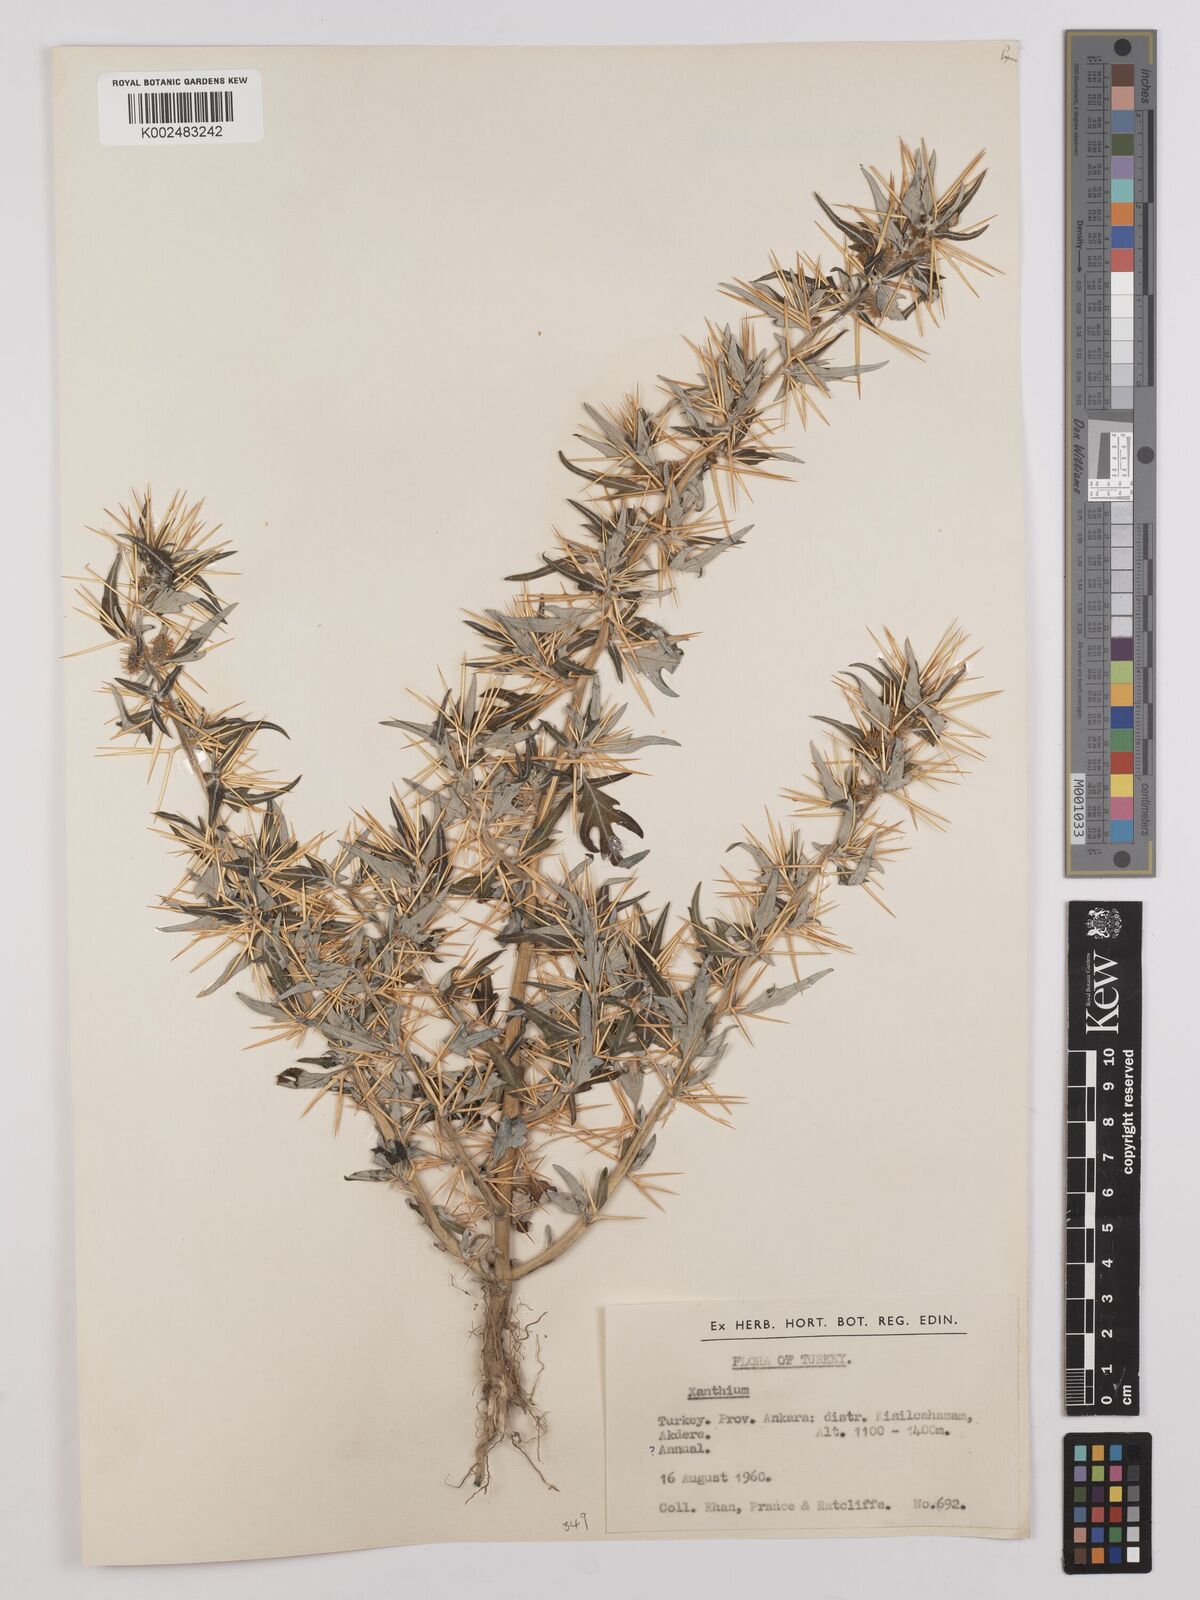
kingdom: Plantae
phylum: Tracheophyta
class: Magnoliopsida
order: Asterales
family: Asteraceae
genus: Xanthium
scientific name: Xanthium spinosum
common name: Spiny cocklebur
